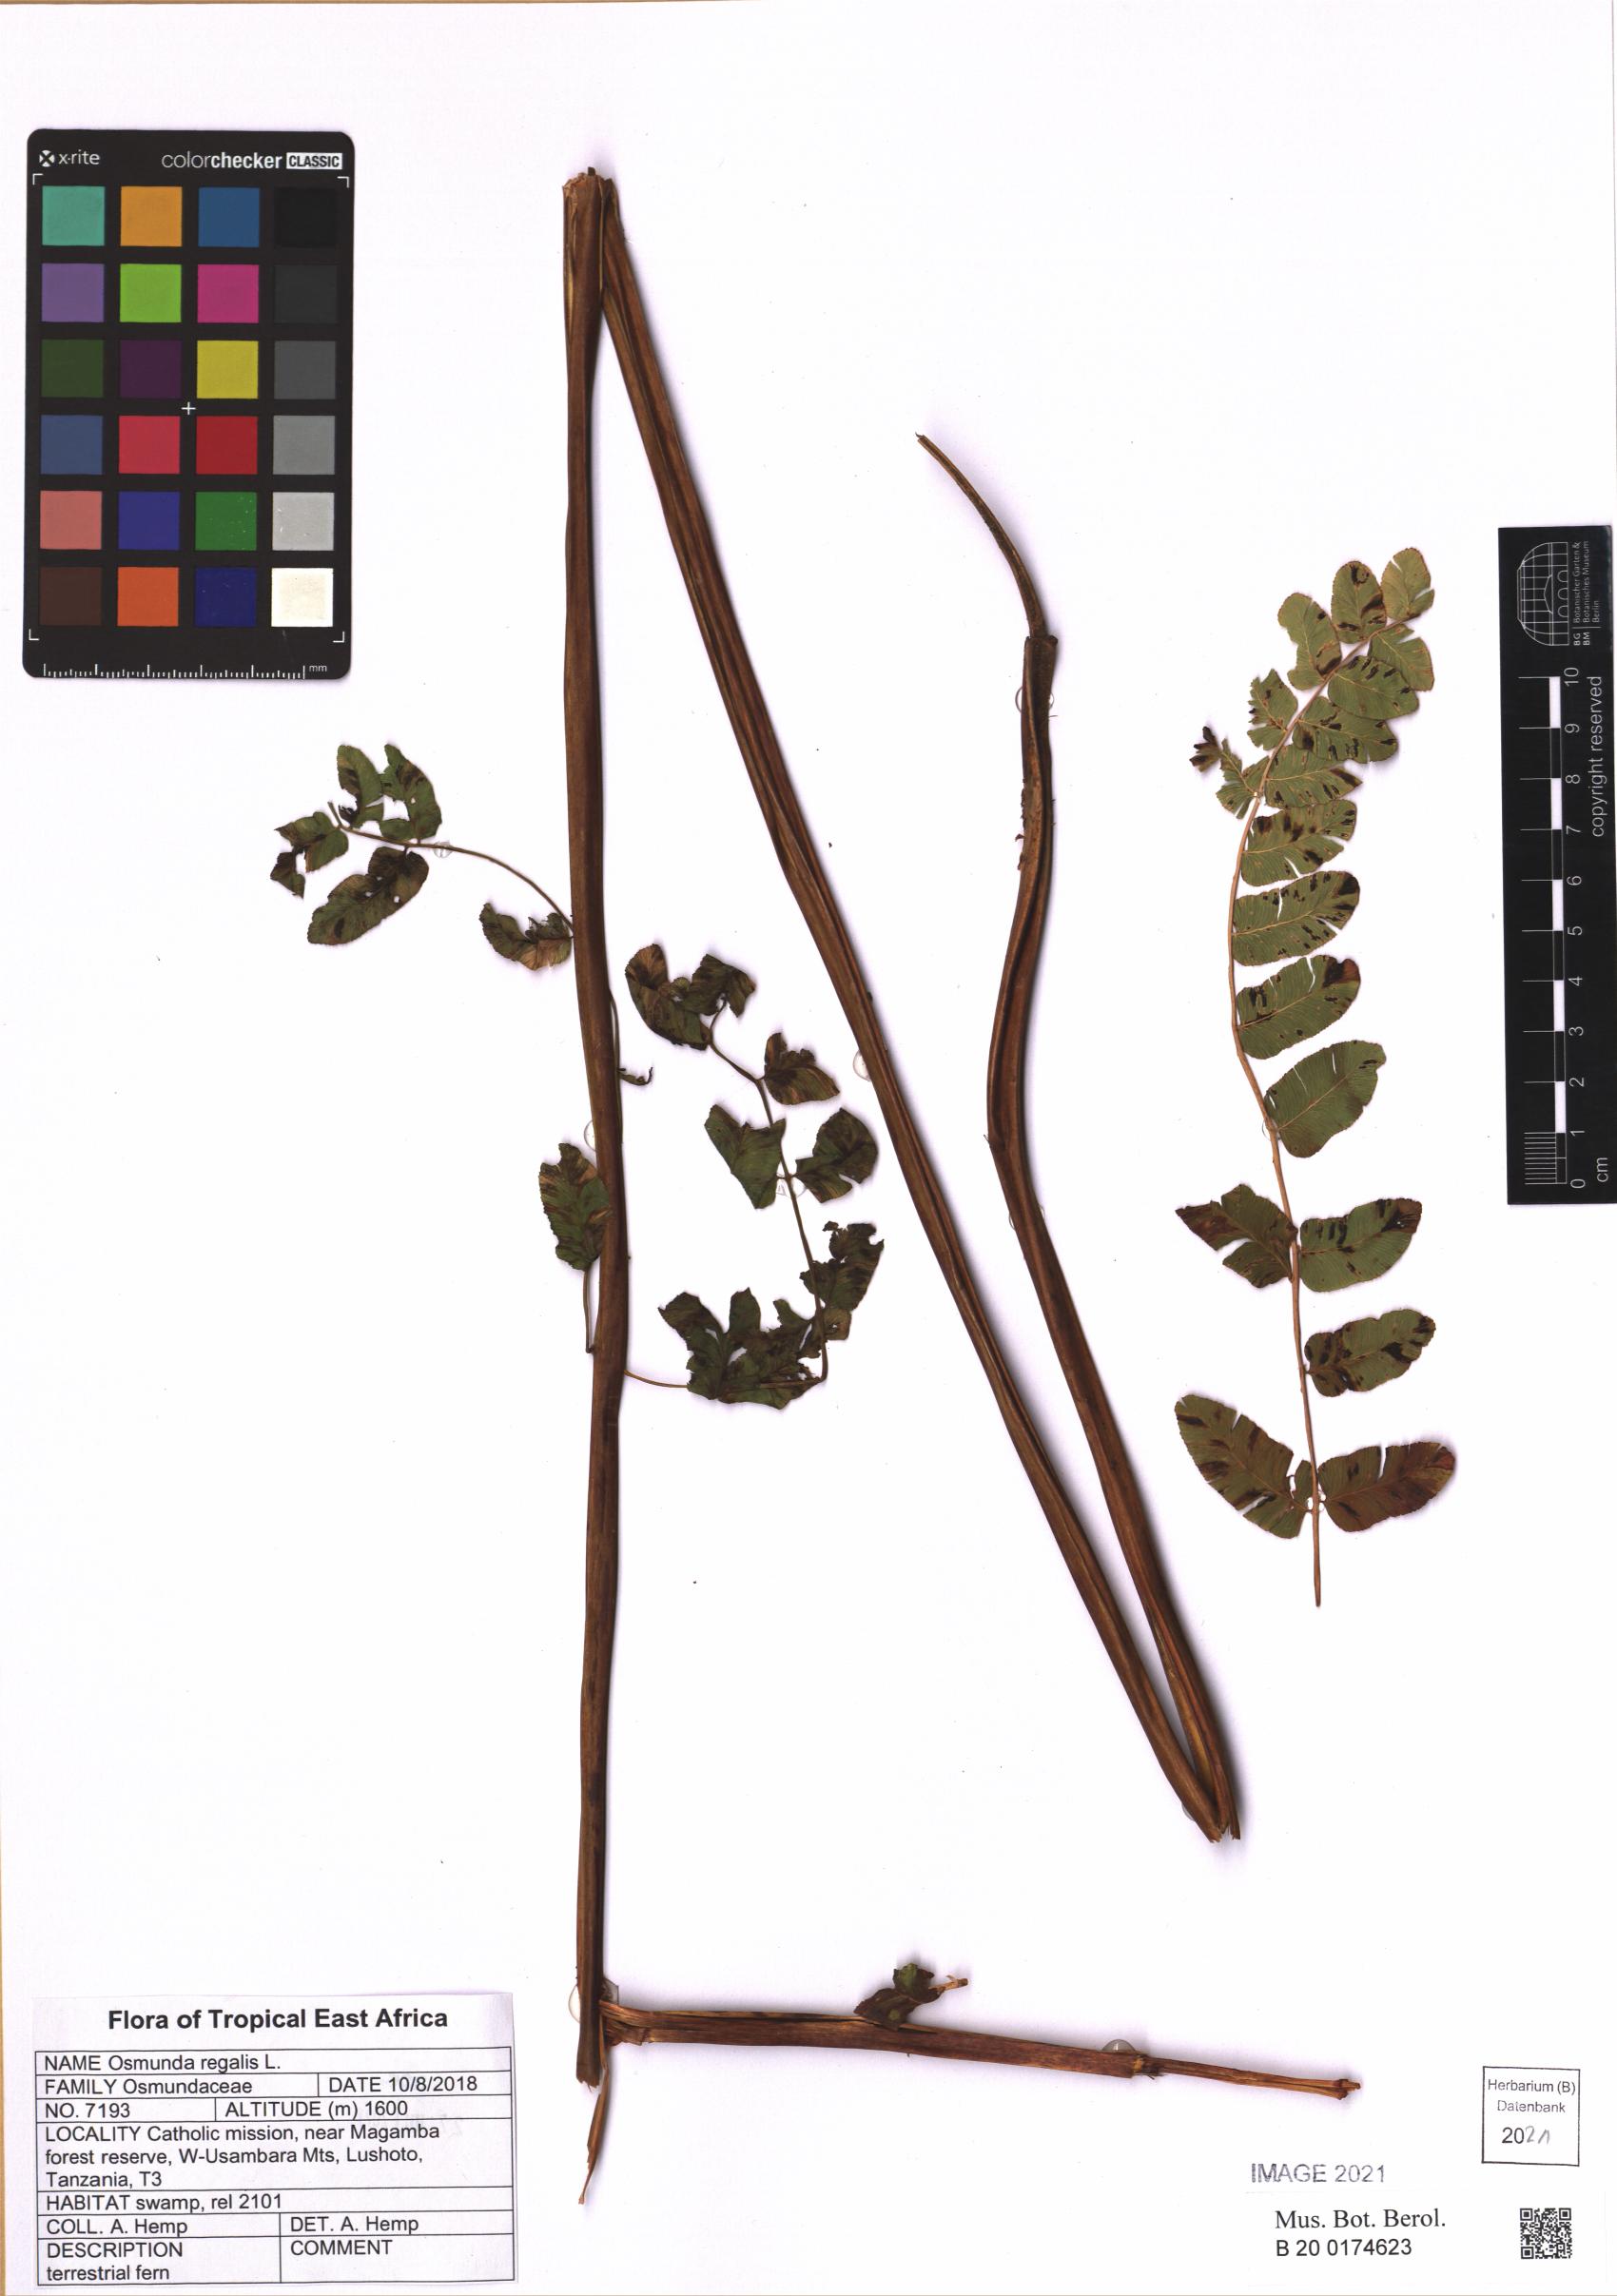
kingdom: Plantae
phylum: Tracheophyta
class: Polypodiopsida
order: Osmundales
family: Osmundaceae
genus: Osmunda
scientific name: Osmunda regalis
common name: Royal fern
